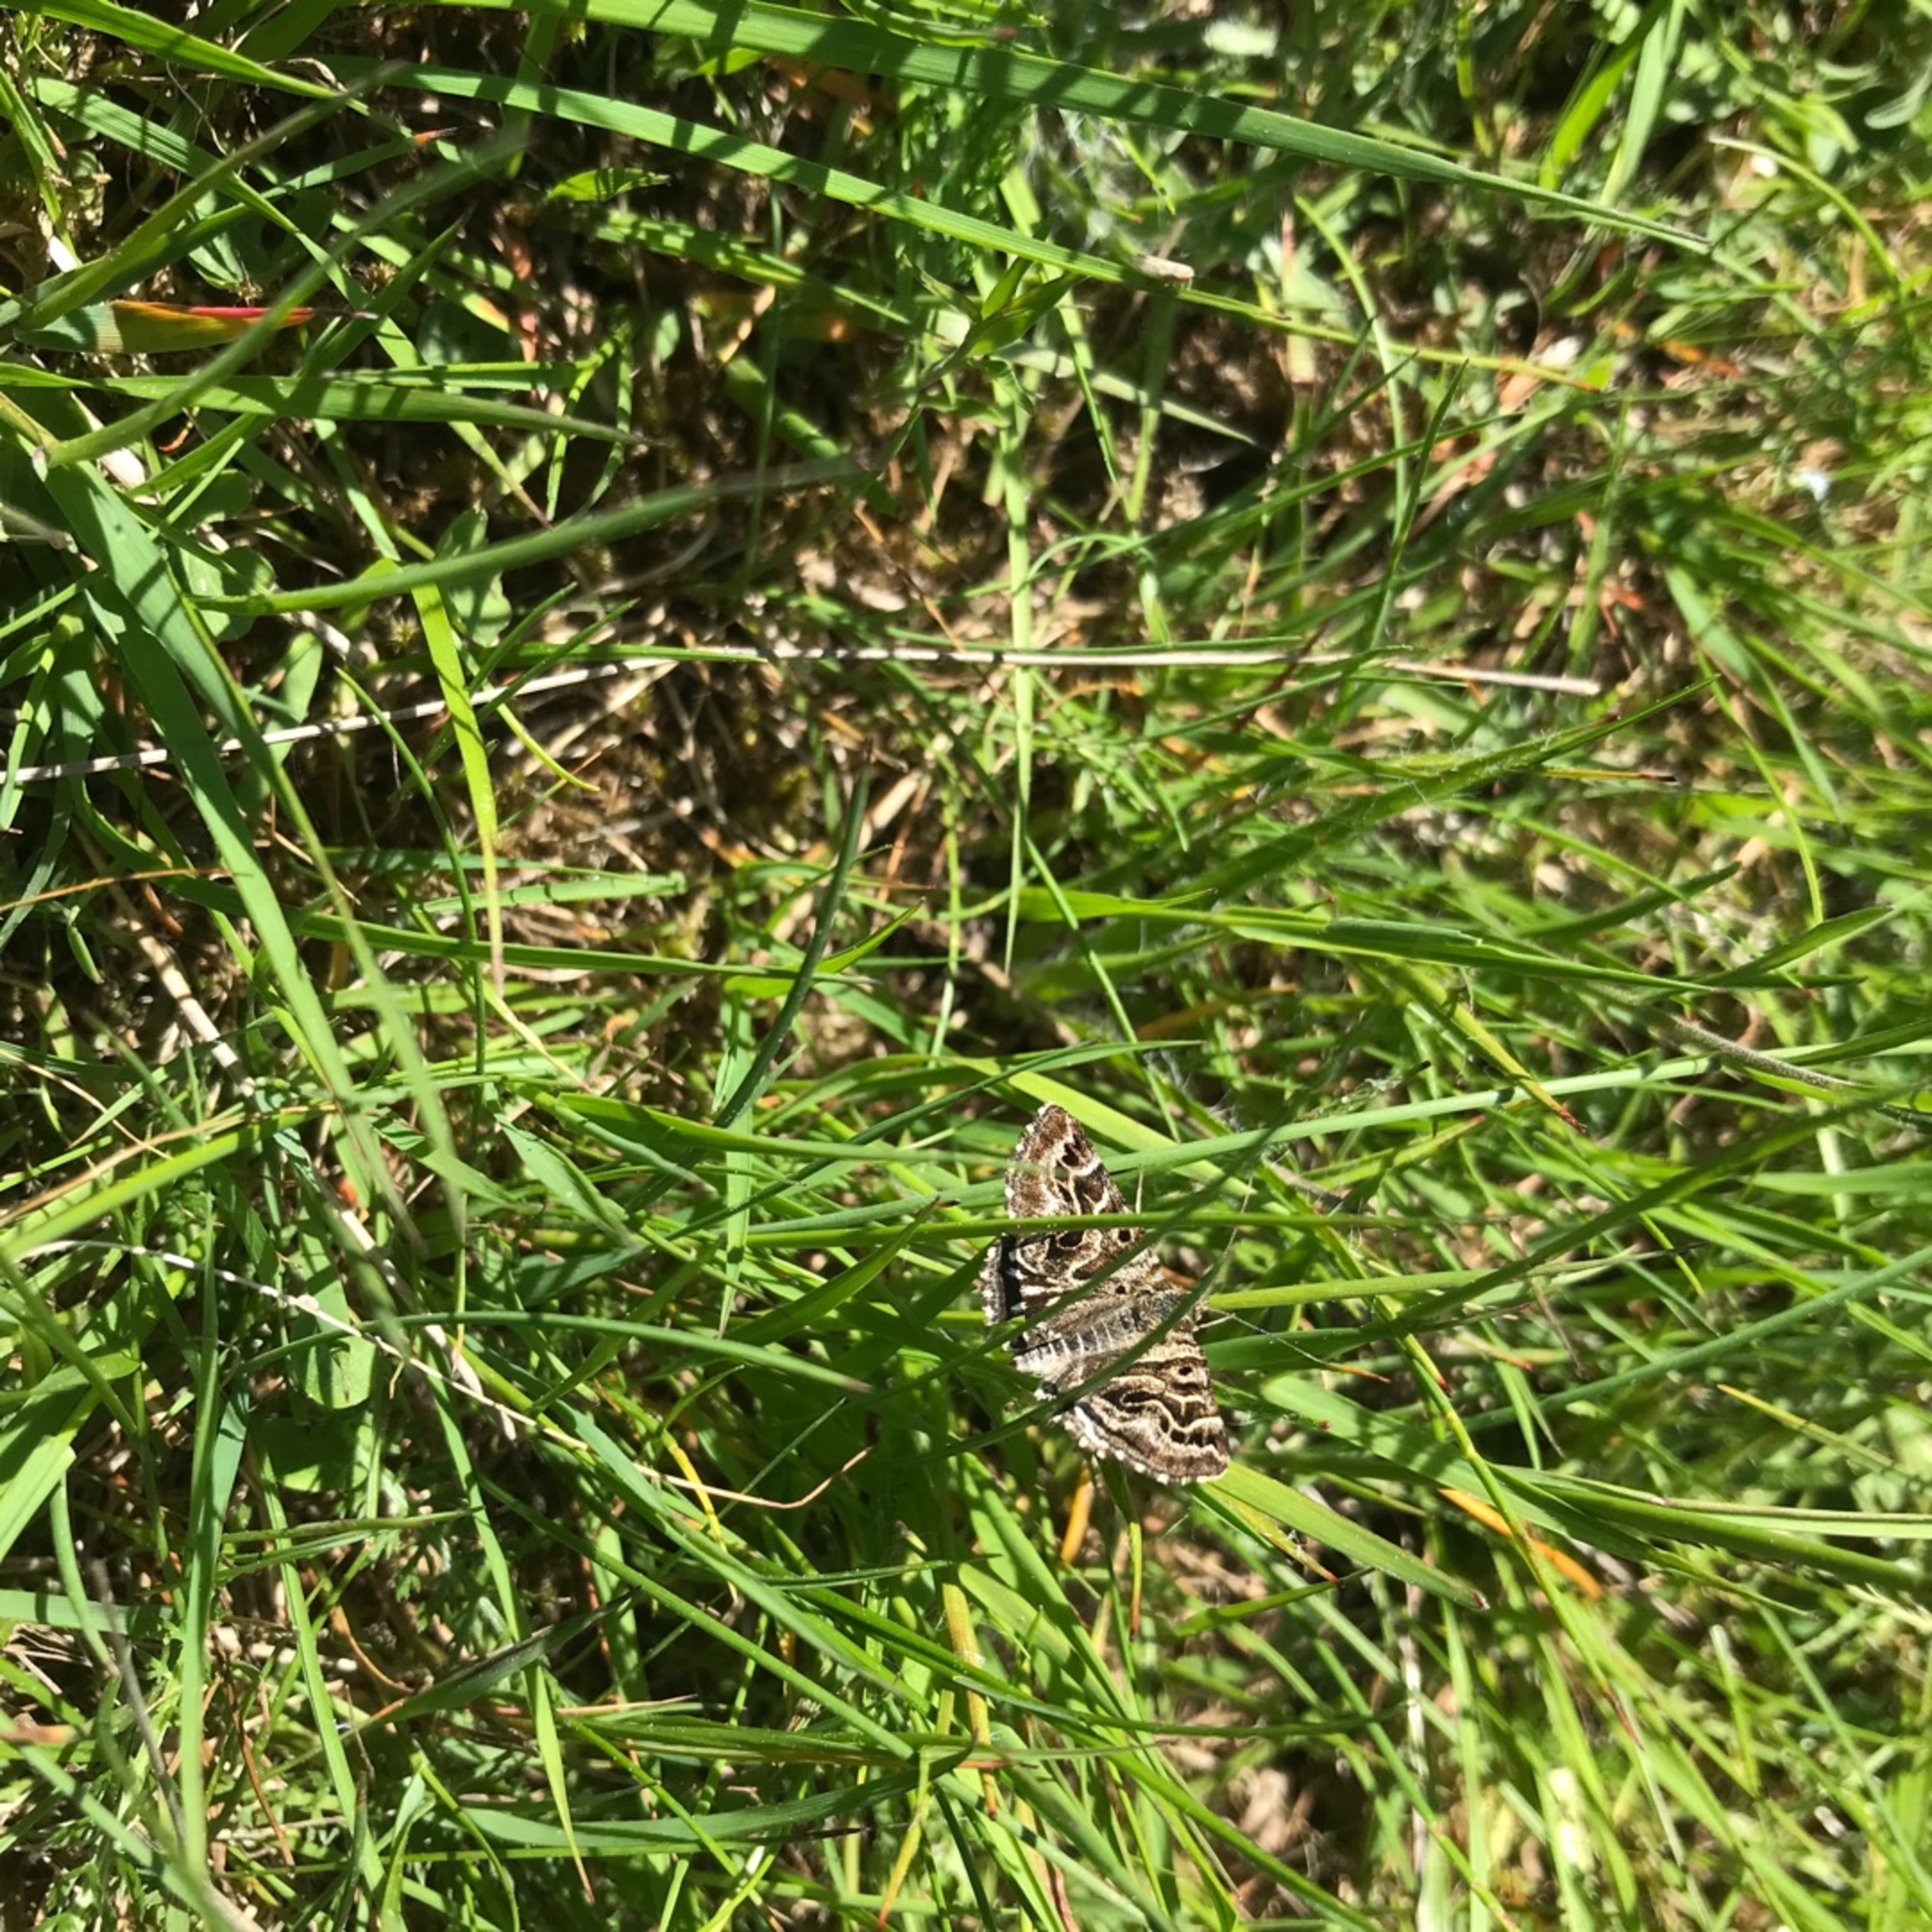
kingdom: Animalia
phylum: Arthropoda
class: Insecta
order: Lepidoptera
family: Erebidae
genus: Callistege
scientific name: Callistege mi
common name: Marmoreret kløverugle
